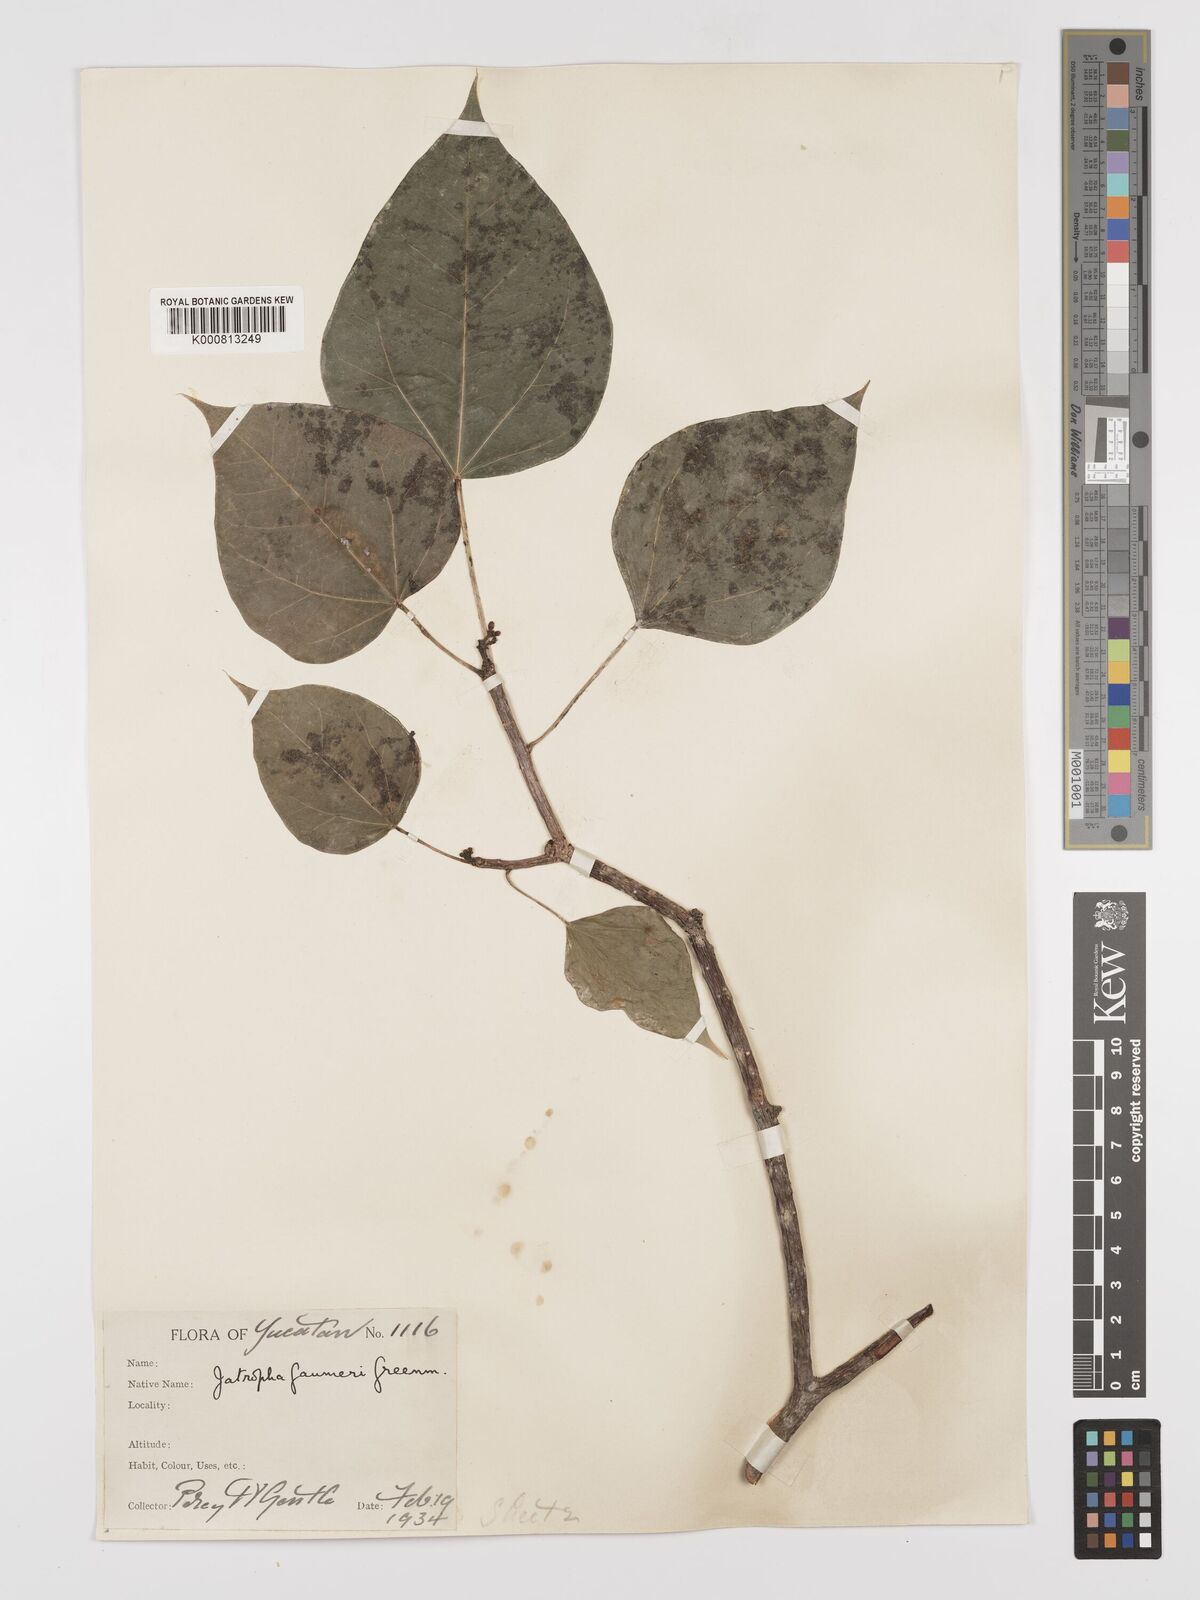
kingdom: Plantae
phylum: Tracheophyta
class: Magnoliopsida
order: Malpighiales
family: Euphorbiaceae
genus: Jatropha
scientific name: Jatropha gaumeri
